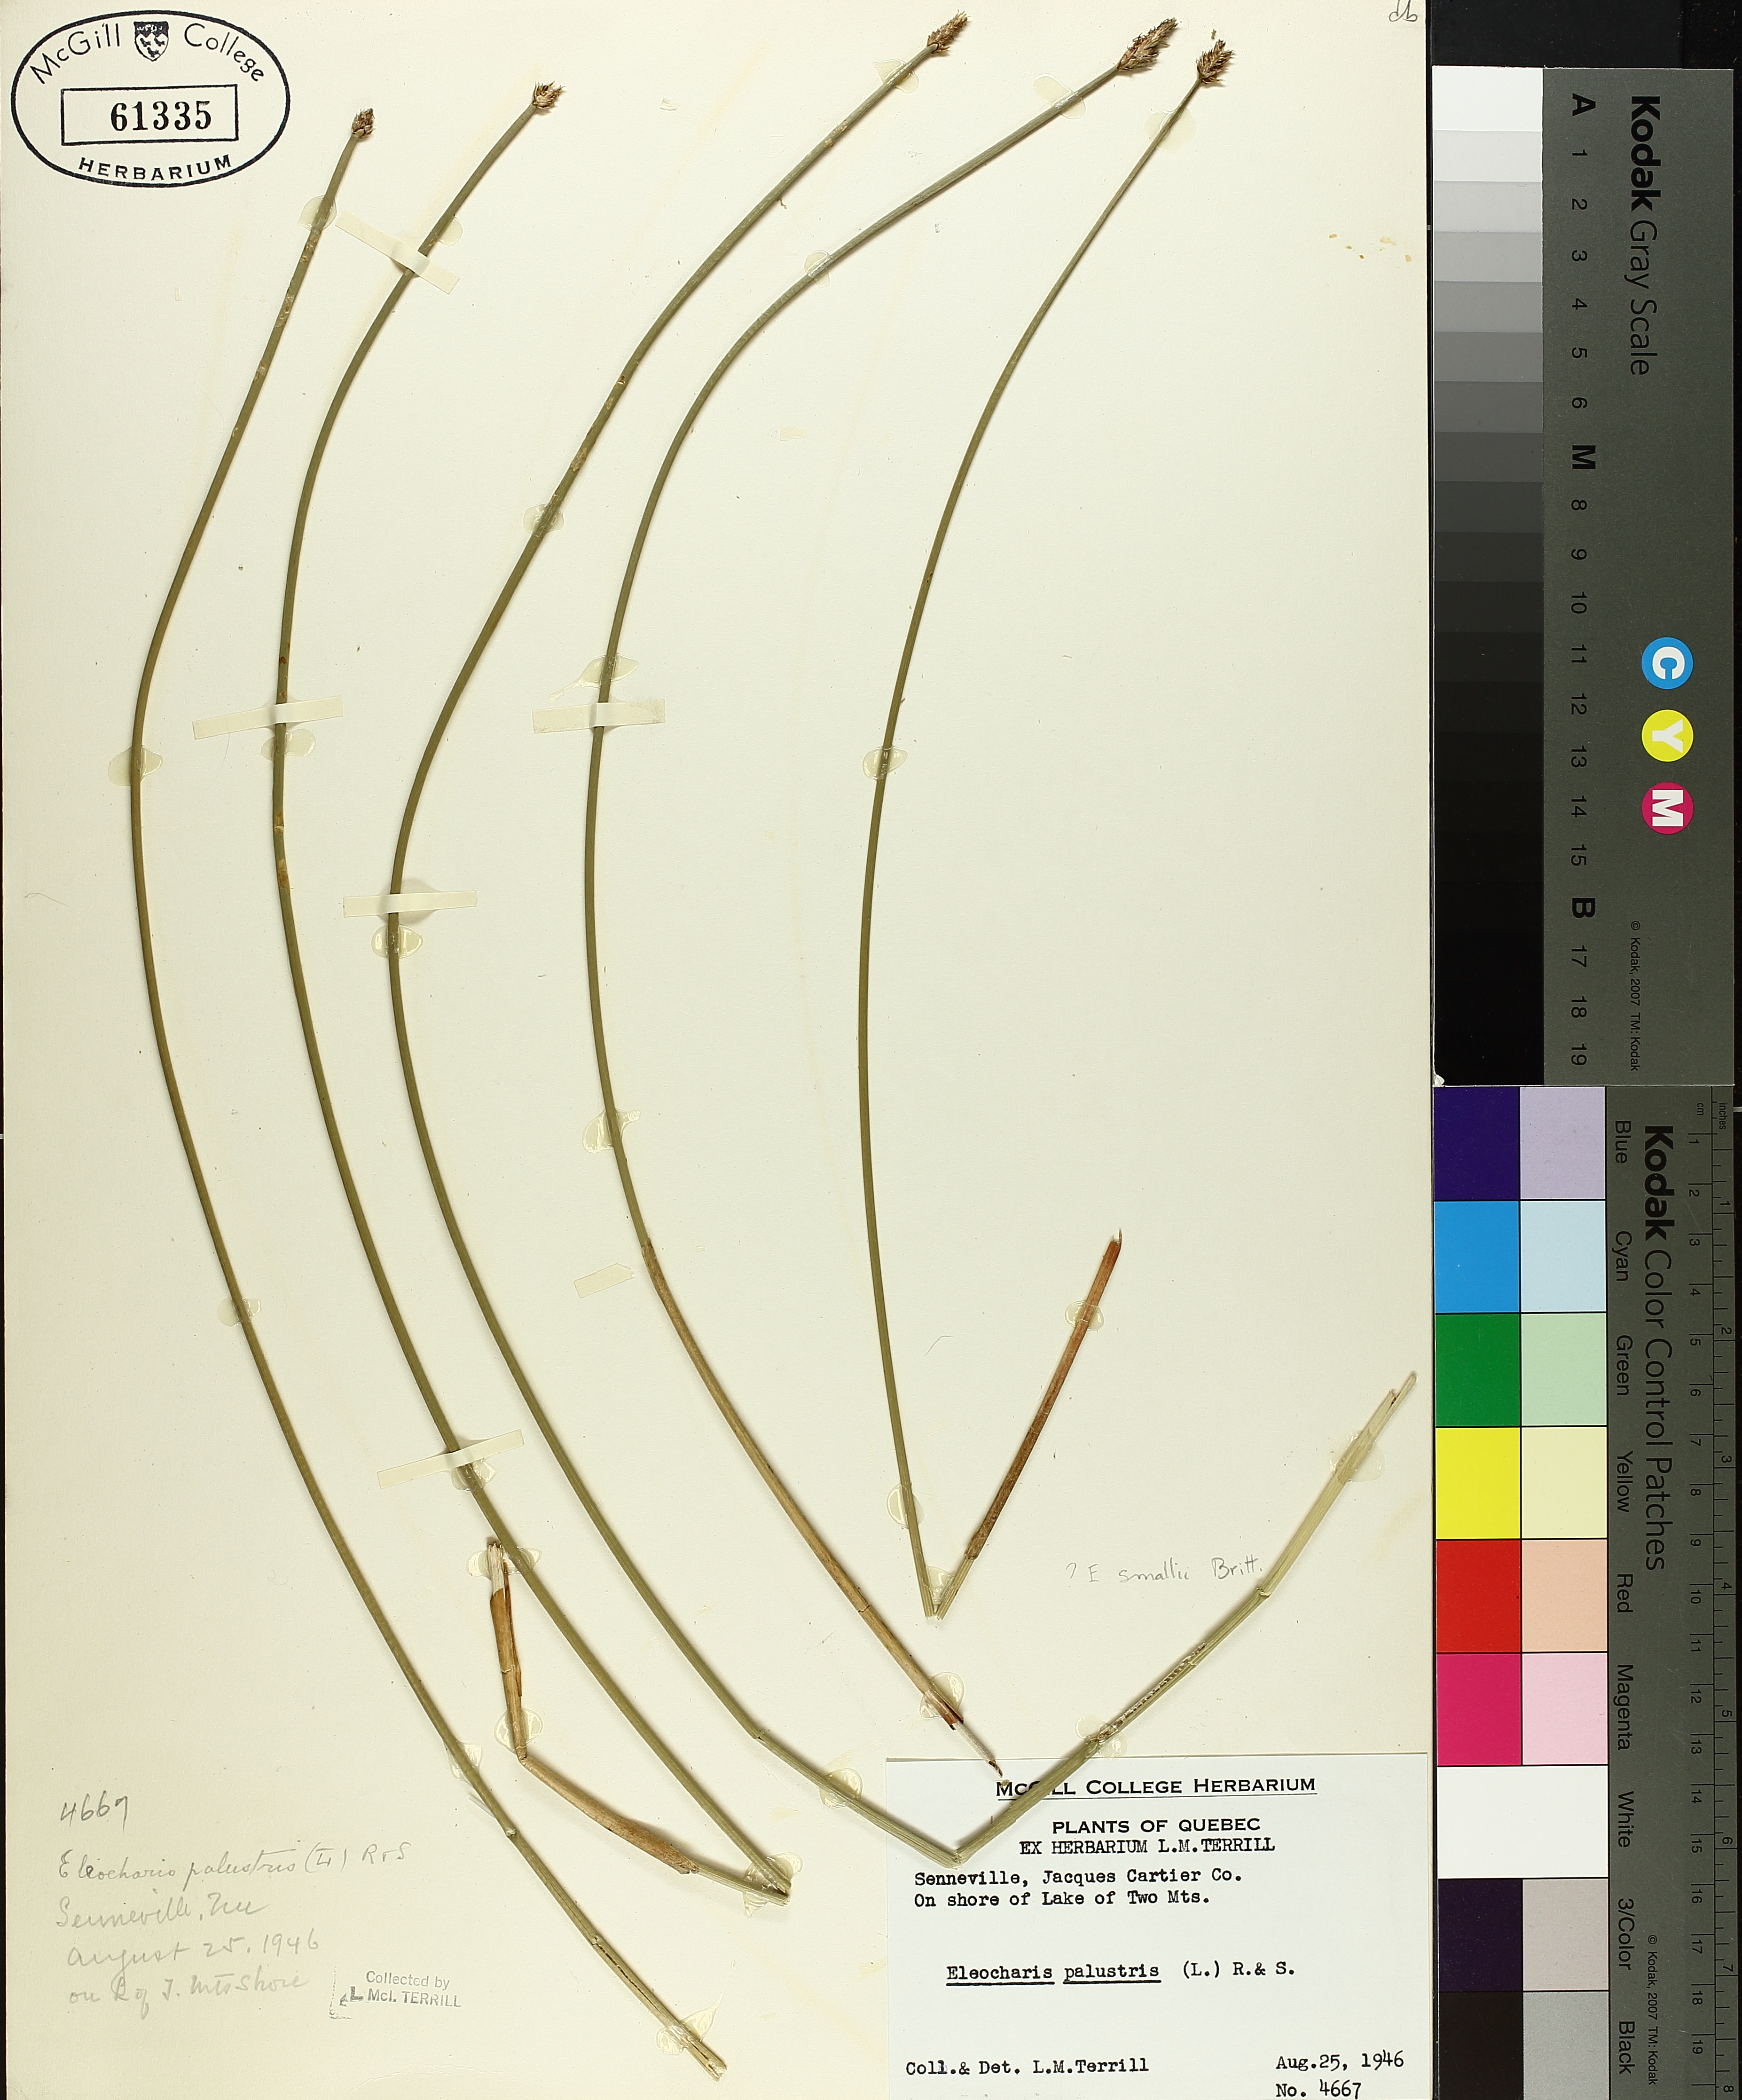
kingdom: Plantae
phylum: Tracheophyta
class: Liliopsida
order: Poales
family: Cyperaceae
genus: Eleocharis
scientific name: Eleocharis palustris
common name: Common spike-rush
